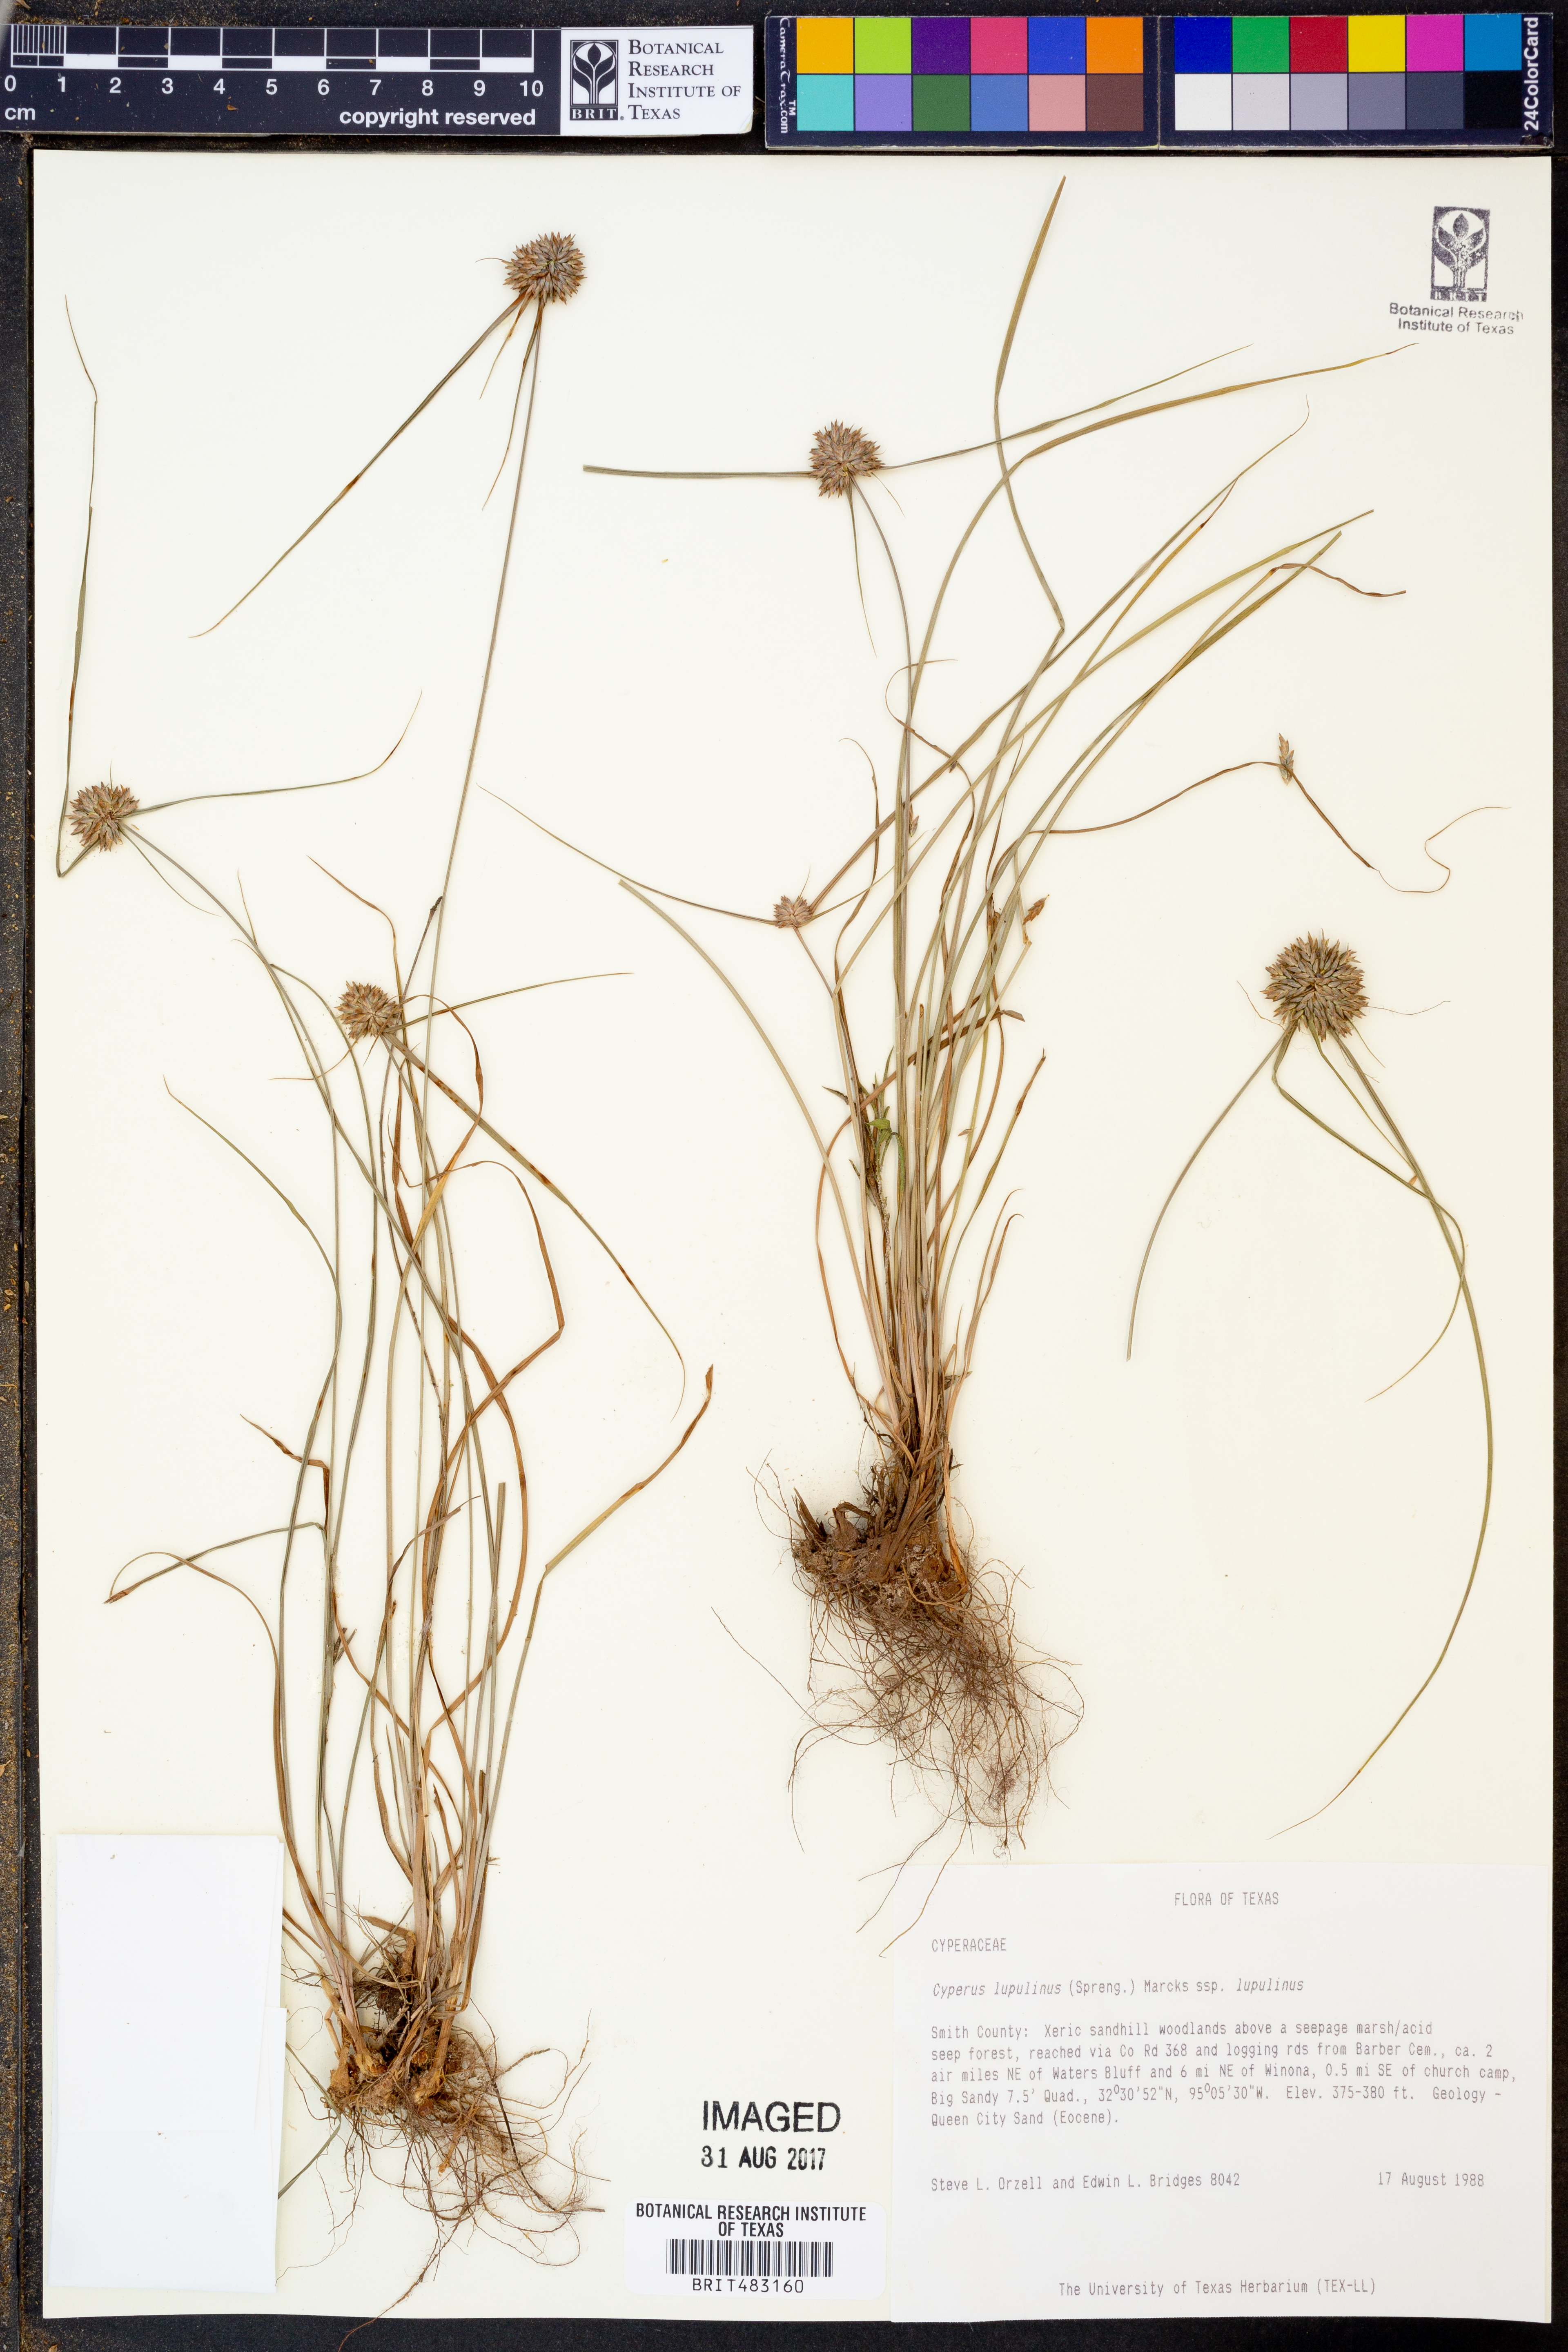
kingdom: Plantae
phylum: Tracheophyta
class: Liliopsida
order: Poales
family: Cyperaceae
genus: Cyperus
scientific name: Cyperus lupulinus
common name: Great plains flatsedge
